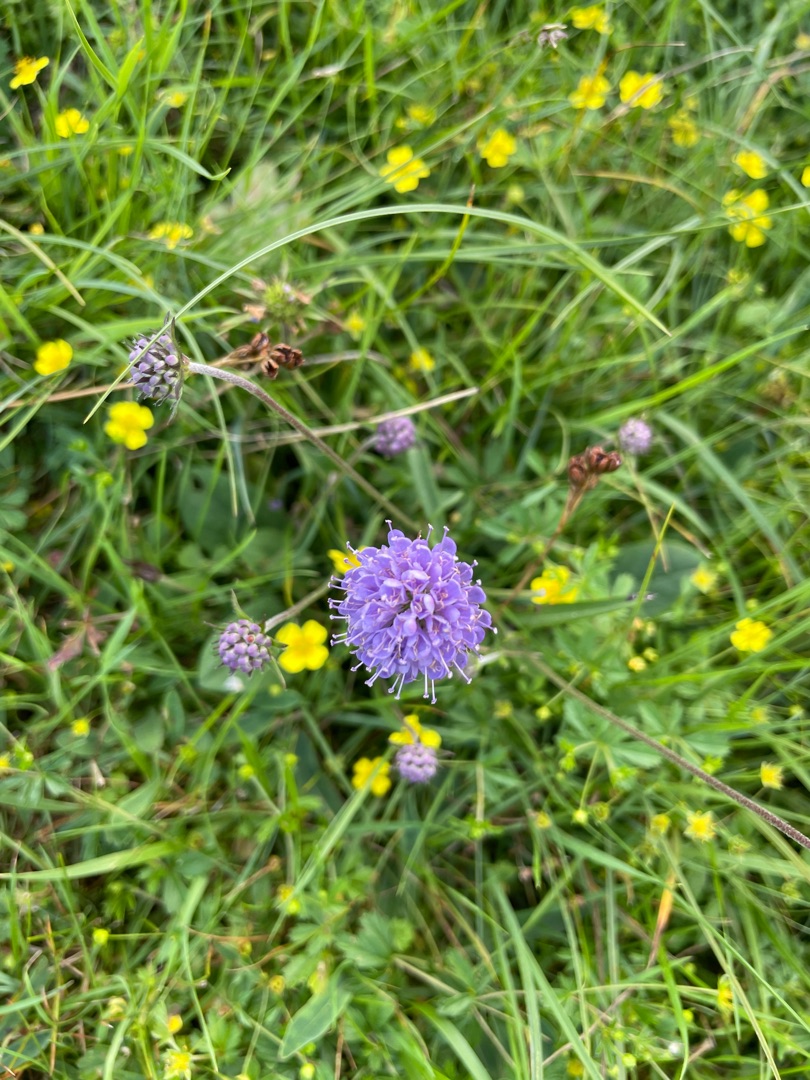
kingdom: Plantae
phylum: Tracheophyta
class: Magnoliopsida
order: Dipsacales
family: Caprifoliaceae
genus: Succisa
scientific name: Succisa pratensis
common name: Djævelsbid
